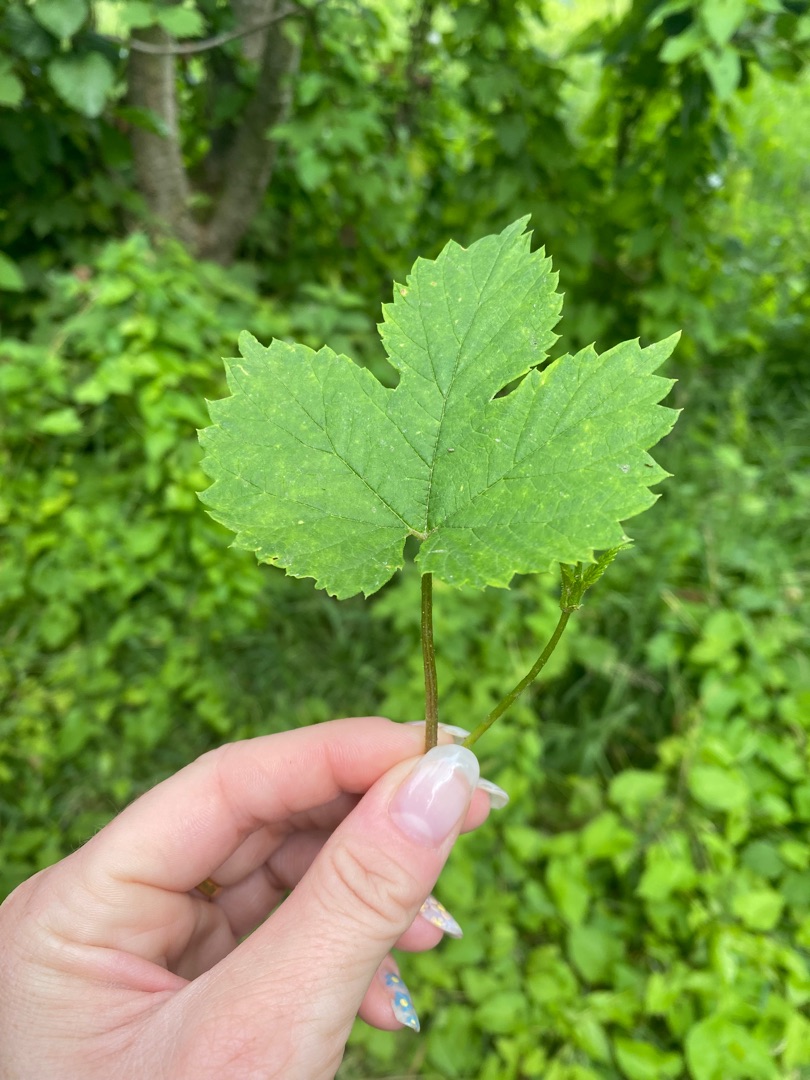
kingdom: Plantae
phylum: Tracheophyta
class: Magnoliopsida
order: Rosales
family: Cannabaceae
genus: Humulus
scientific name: Humulus lupulus
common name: Humle
